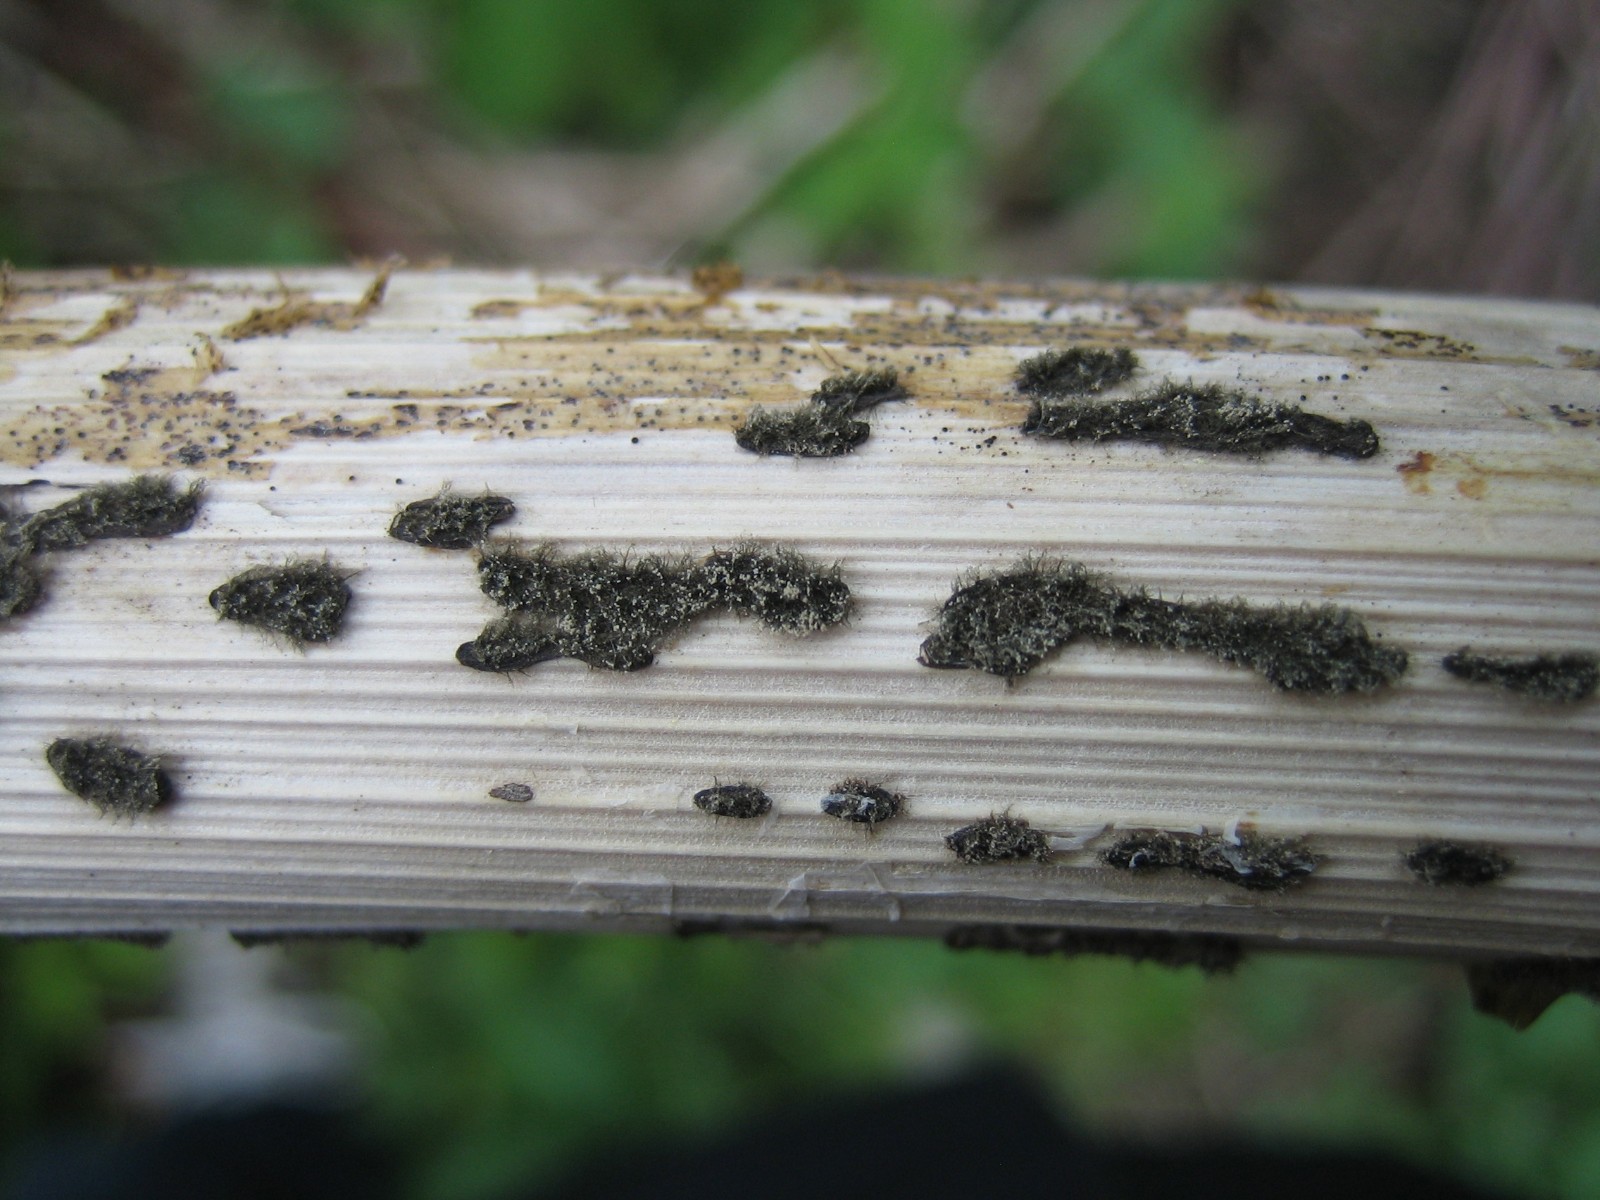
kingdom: Fungi
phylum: Ascomycota
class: Leotiomycetes
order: Helotiales
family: Sclerotiniaceae
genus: Botrytis
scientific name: Botrytis cinerea
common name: Grey mould
